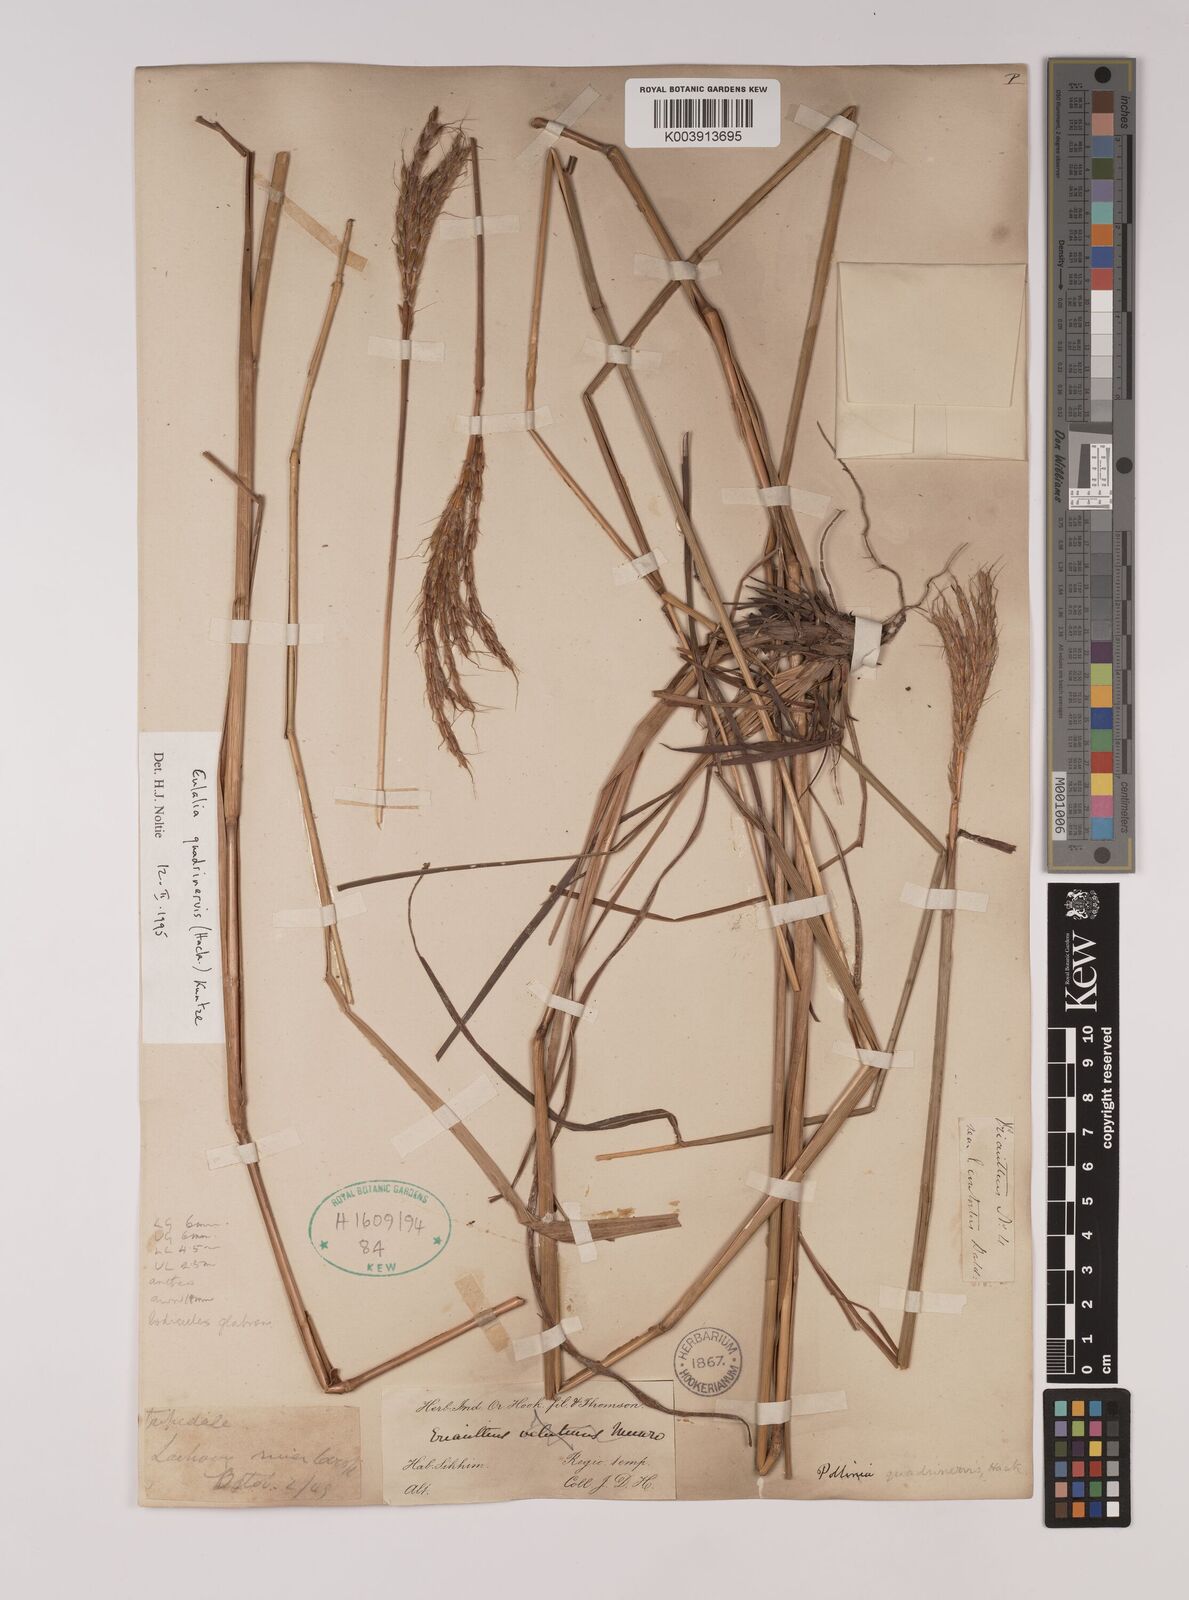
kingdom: Plantae
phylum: Tracheophyta
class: Liliopsida
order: Poales
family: Poaceae
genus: Pseudopogonatherum
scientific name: Pseudopogonatherum quadrinerve
